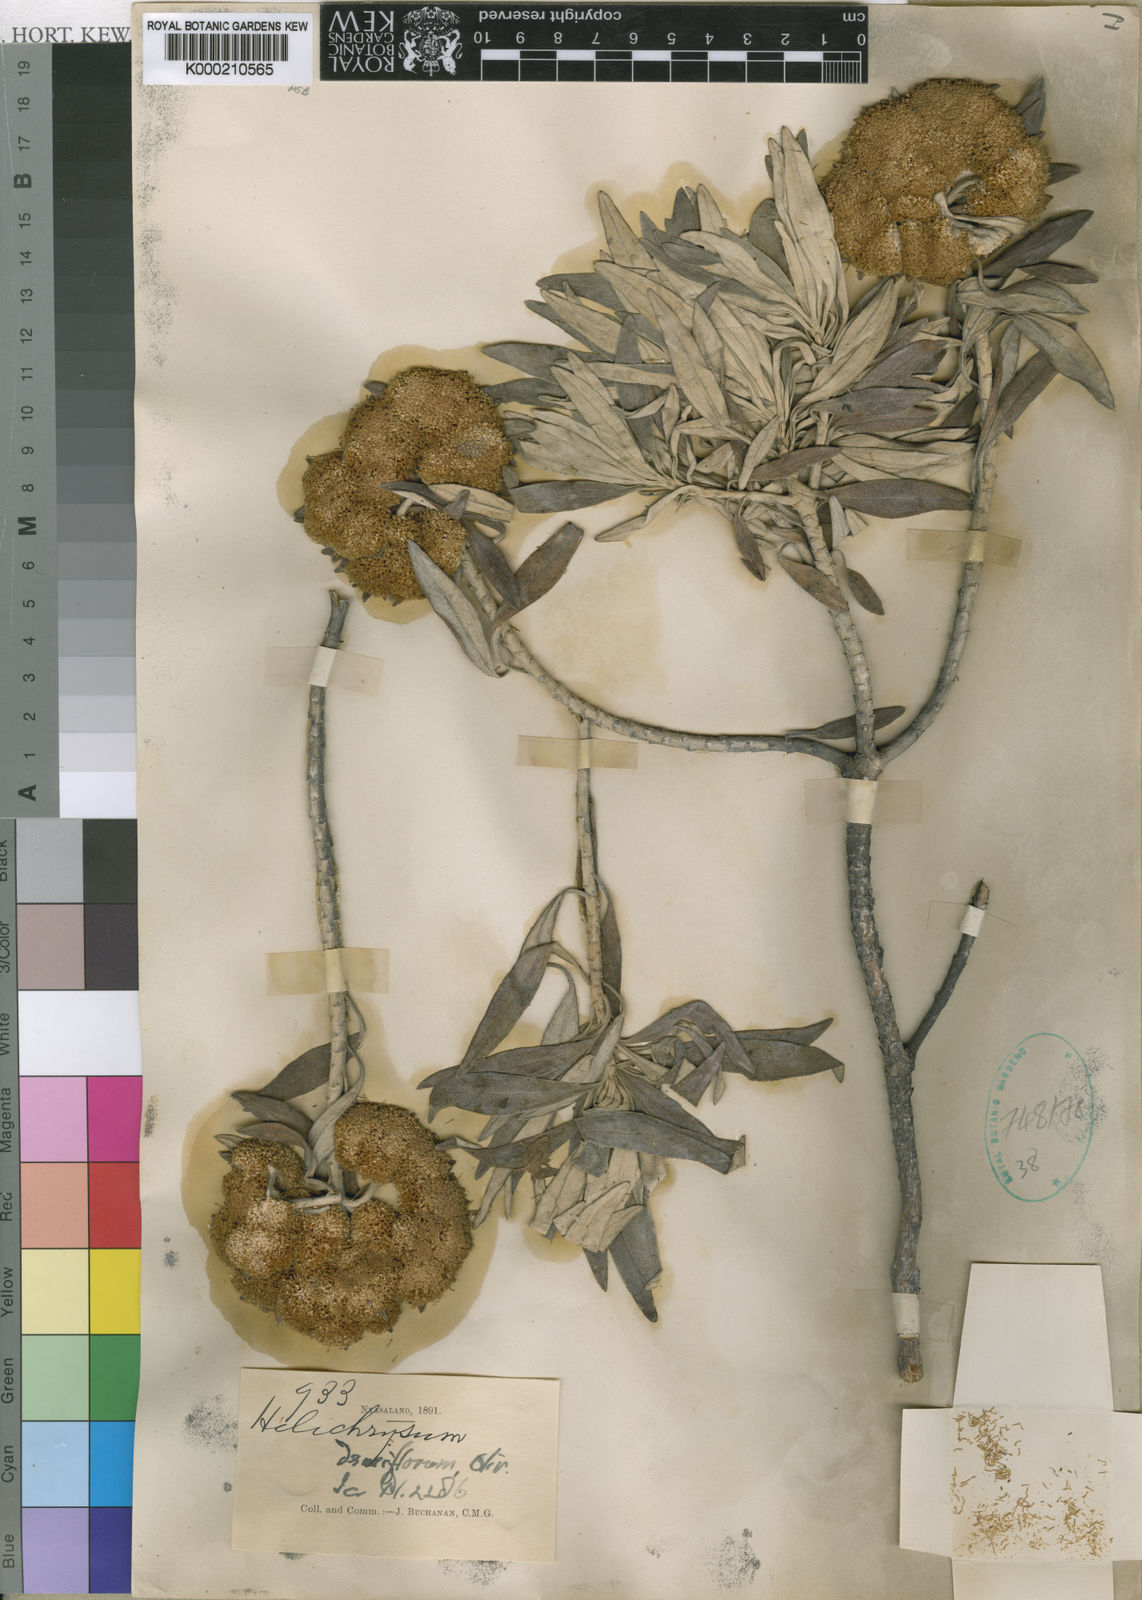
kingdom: Plantae
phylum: Tracheophyta
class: Magnoliopsida
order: Asterales
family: Asteraceae
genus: Helichrysum
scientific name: Helichrysum densiflorum
